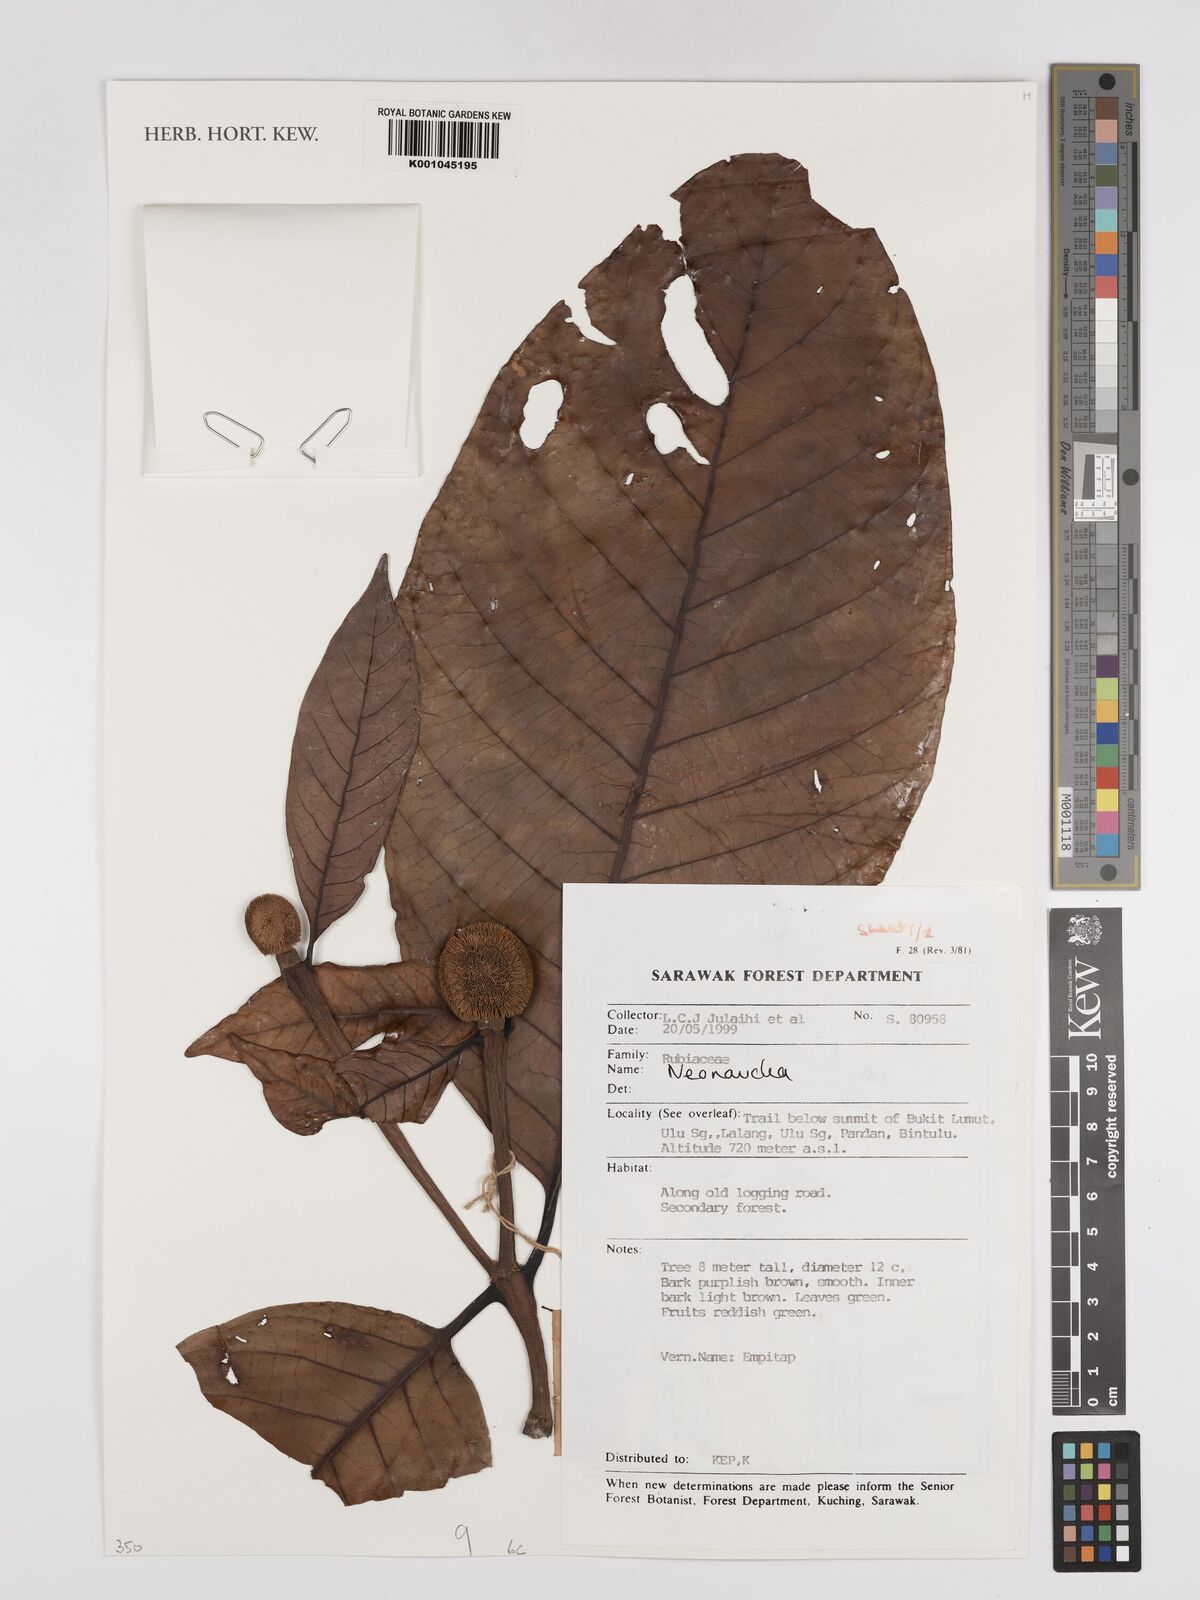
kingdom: Plantae
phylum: Tracheophyta
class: Magnoliopsida
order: Gentianales
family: Rubiaceae
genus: Neonauclea
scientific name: Neonauclea
